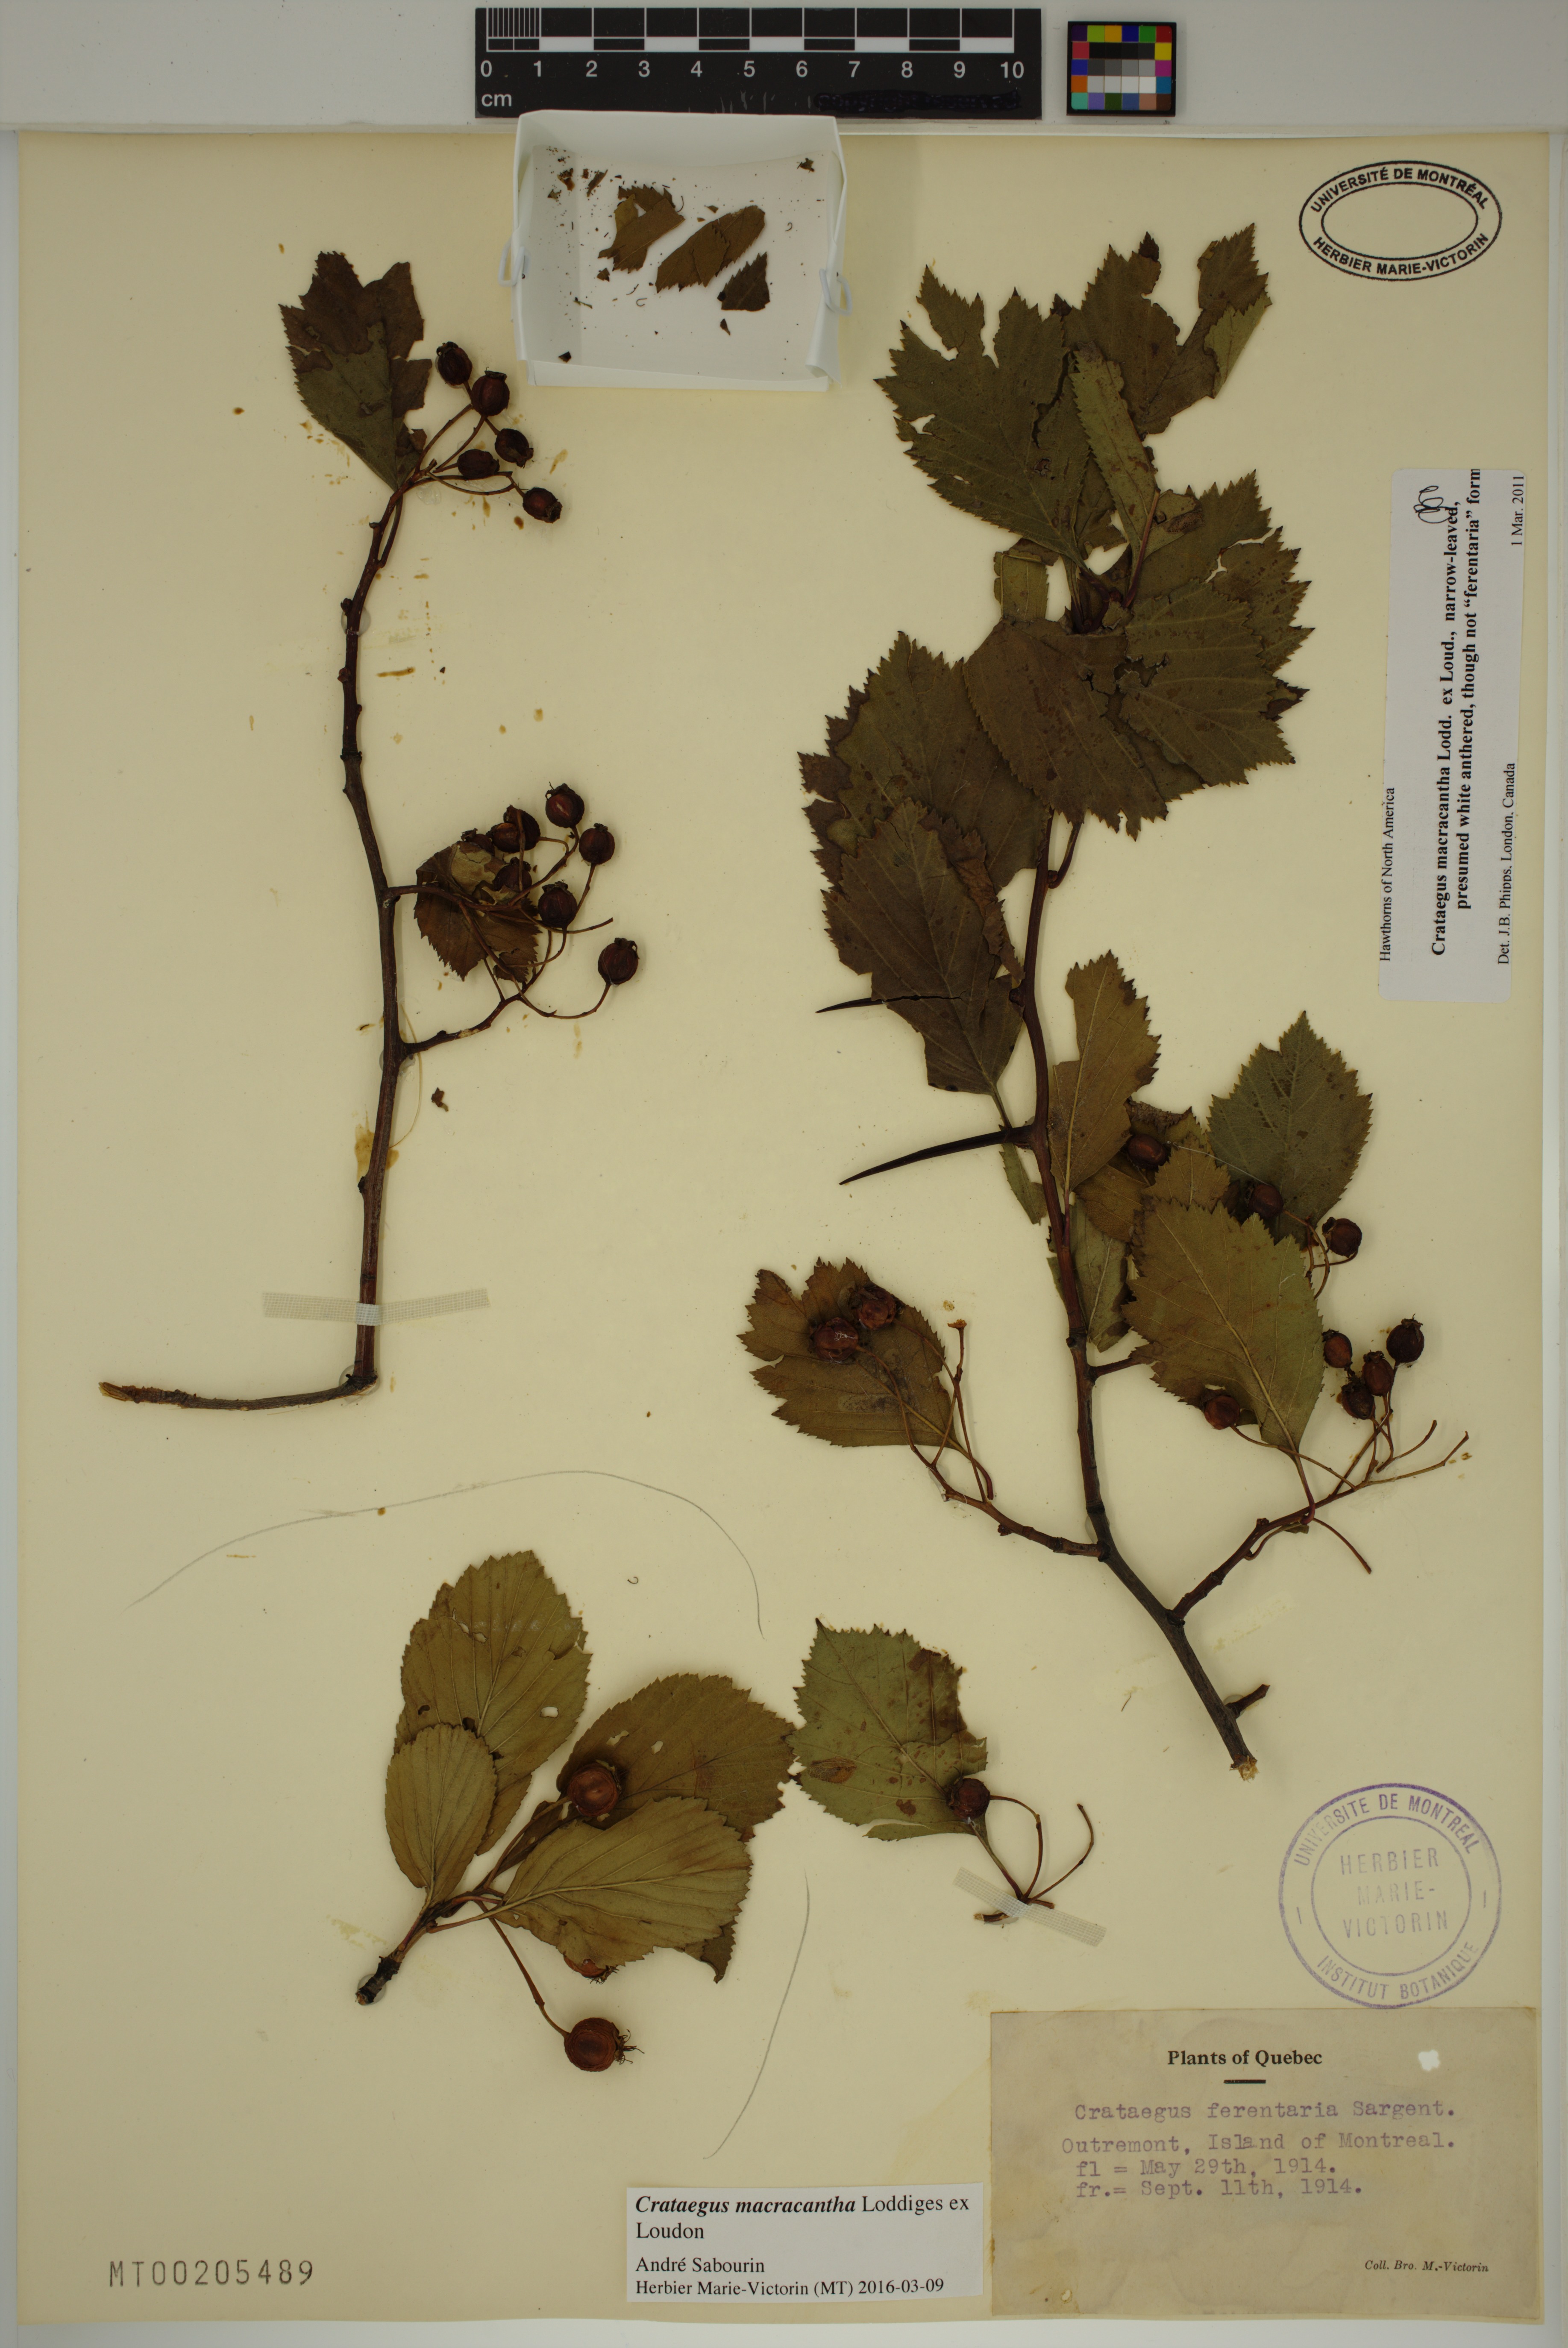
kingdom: Plantae
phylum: Tracheophyta
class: Magnoliopsida
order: Rosales
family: Rosaceae
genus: Crataegus
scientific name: Crataegus macracantha
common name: Large-thorn hawthorn
